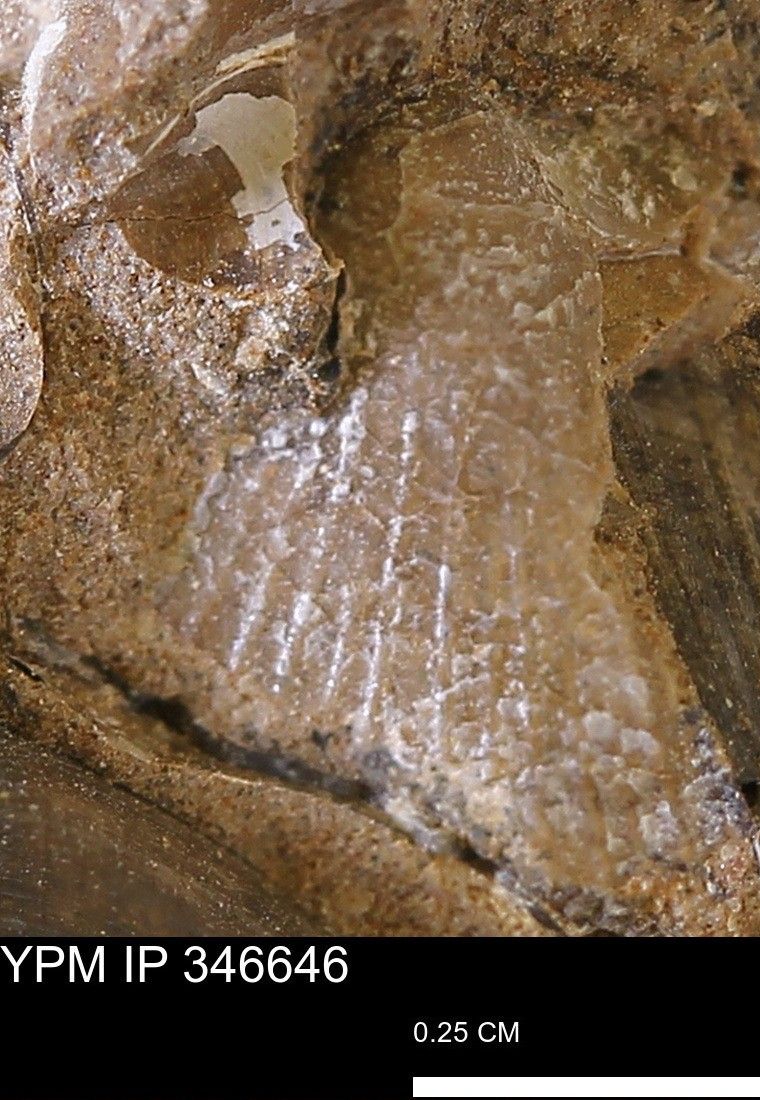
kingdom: Animalia
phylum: Mollusca
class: Bivalvia
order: Pectinida
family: Oxytomidae
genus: Oxytoma
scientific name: Oxytoma
